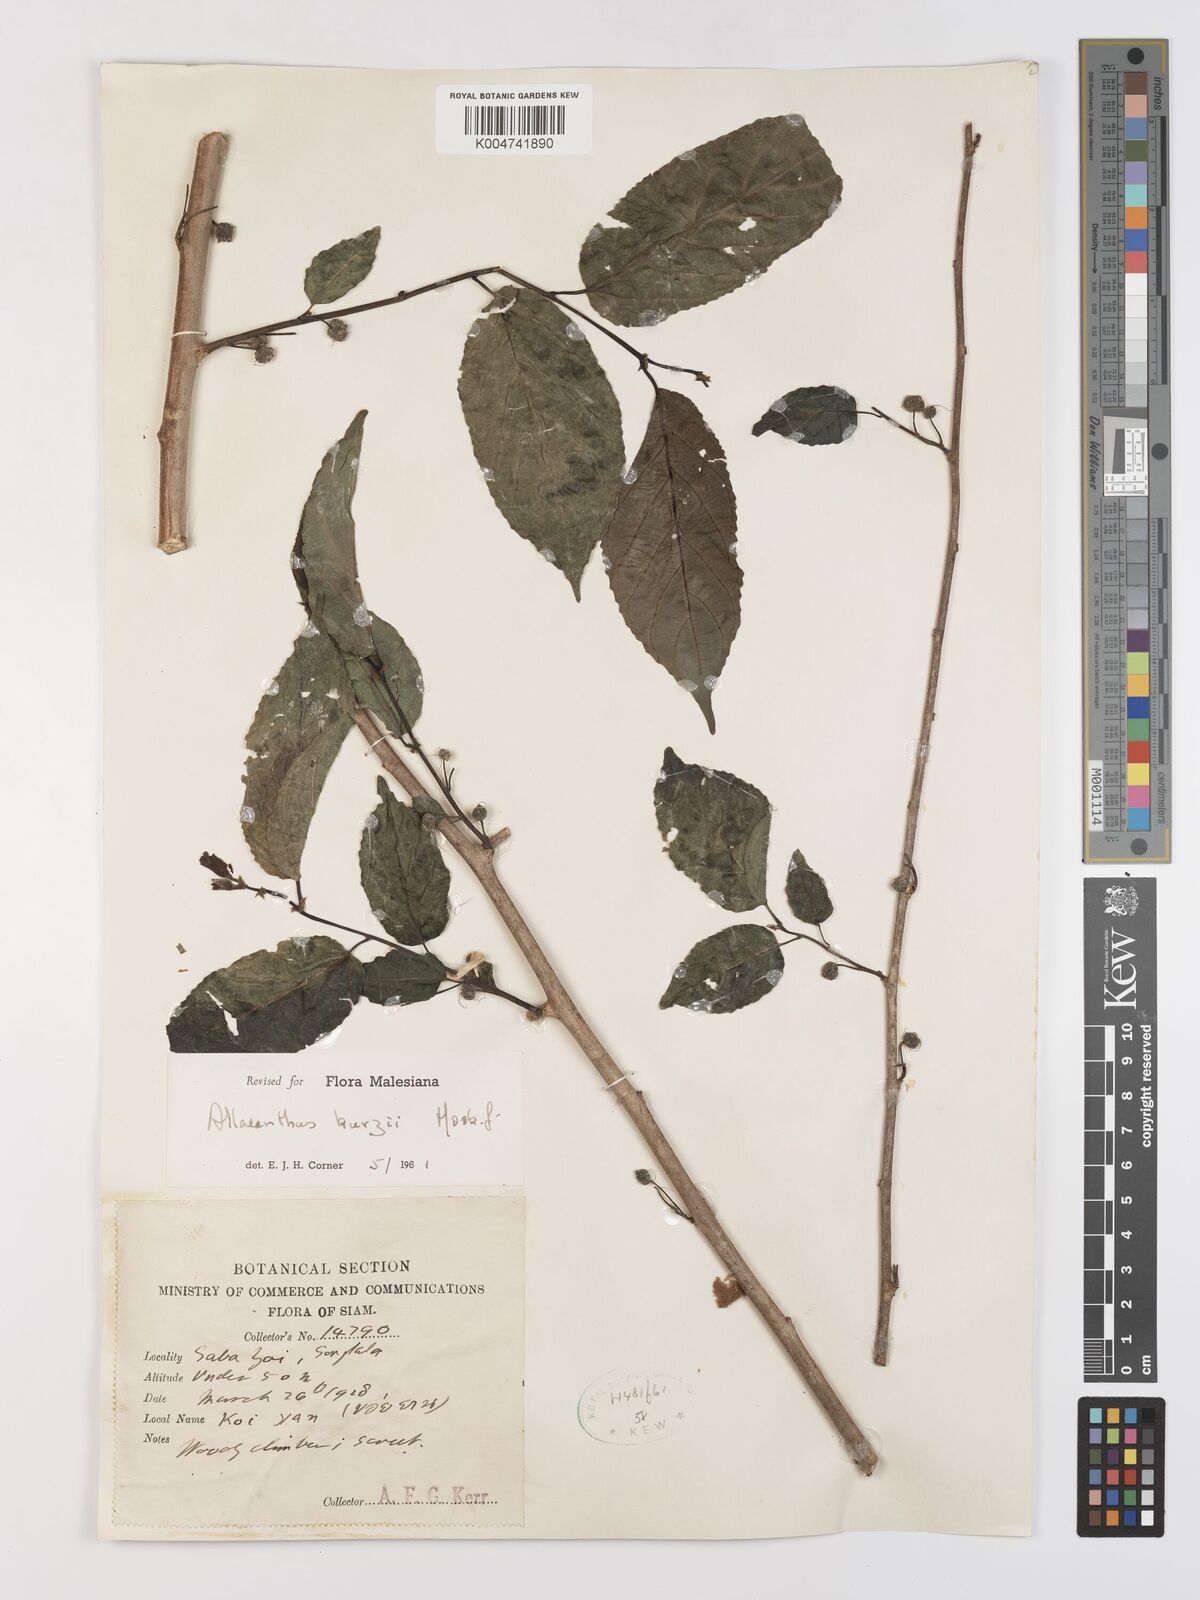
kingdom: Plantae
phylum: Tracheophyta
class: Magnoliopsida
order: Rosales
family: Moraceae
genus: Allaeanthus
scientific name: Allaeanthus kurzii
